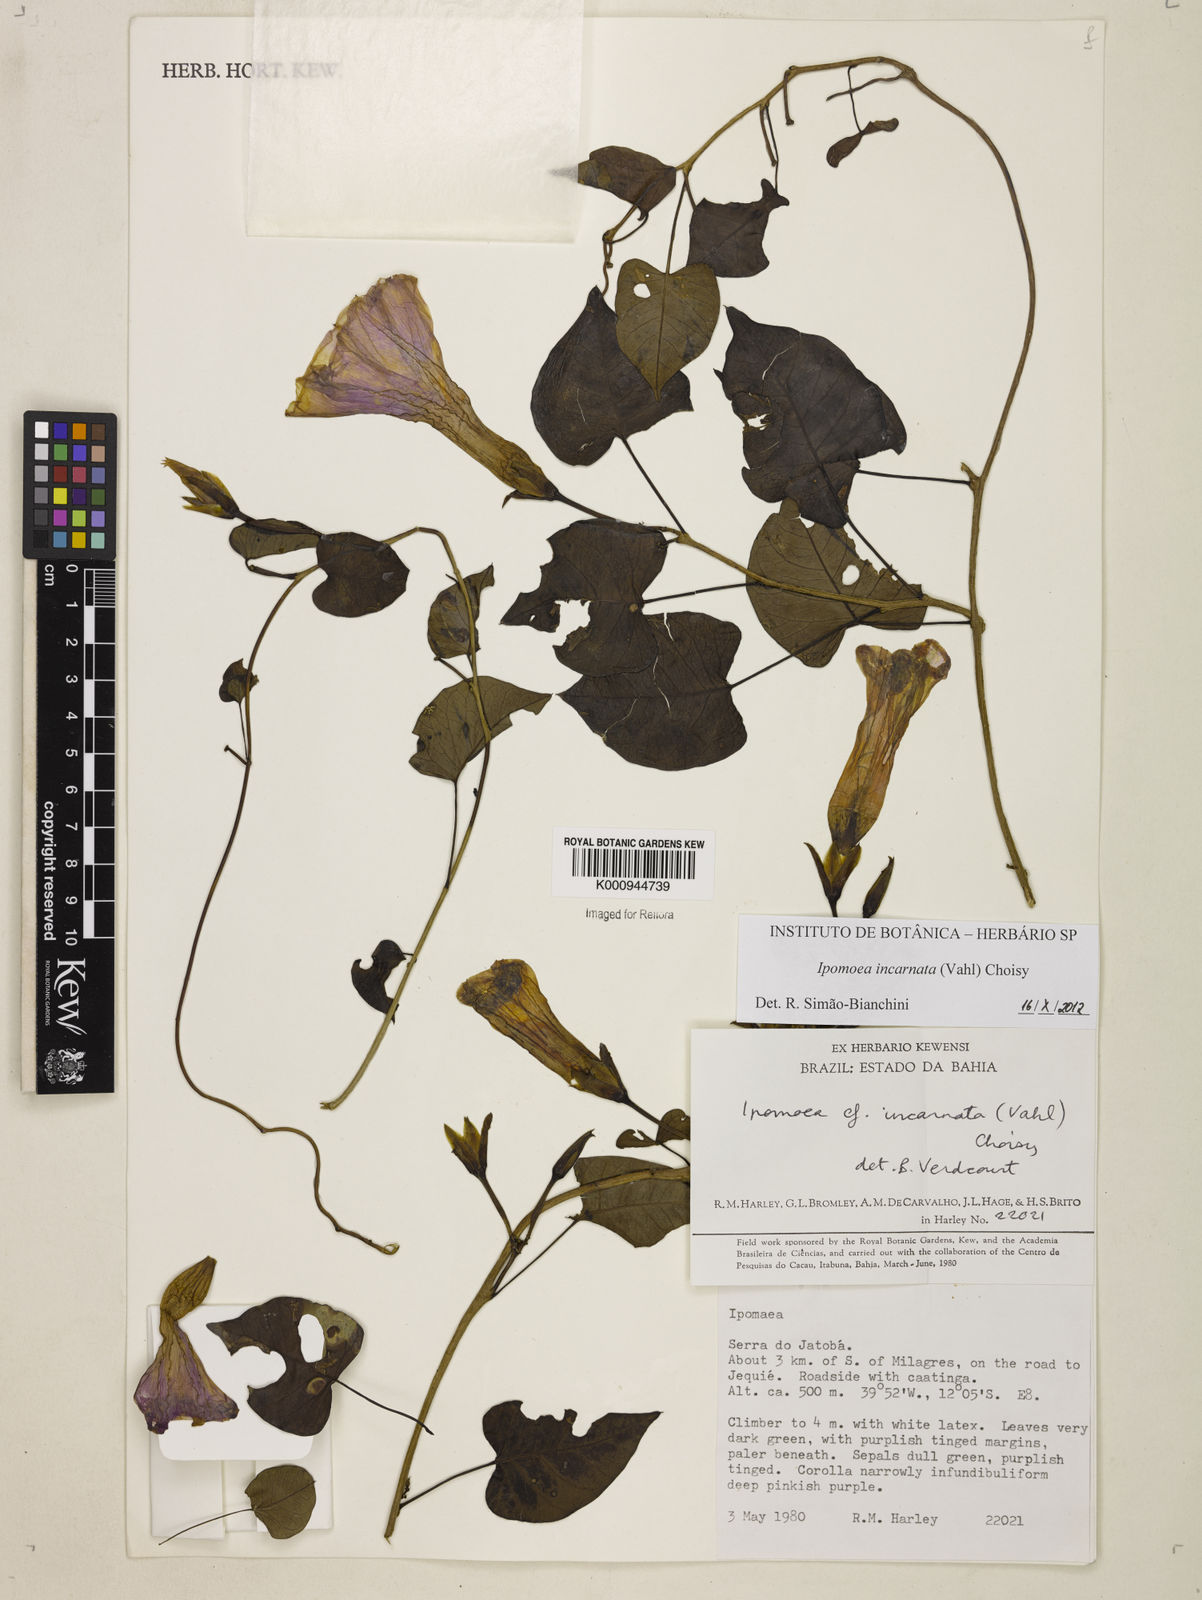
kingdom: Plantae
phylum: Tracheophyta
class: Magnoliopsida
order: Solanales
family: Convolvulaceae
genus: Ipomoea
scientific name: Ipomoea incarnata
